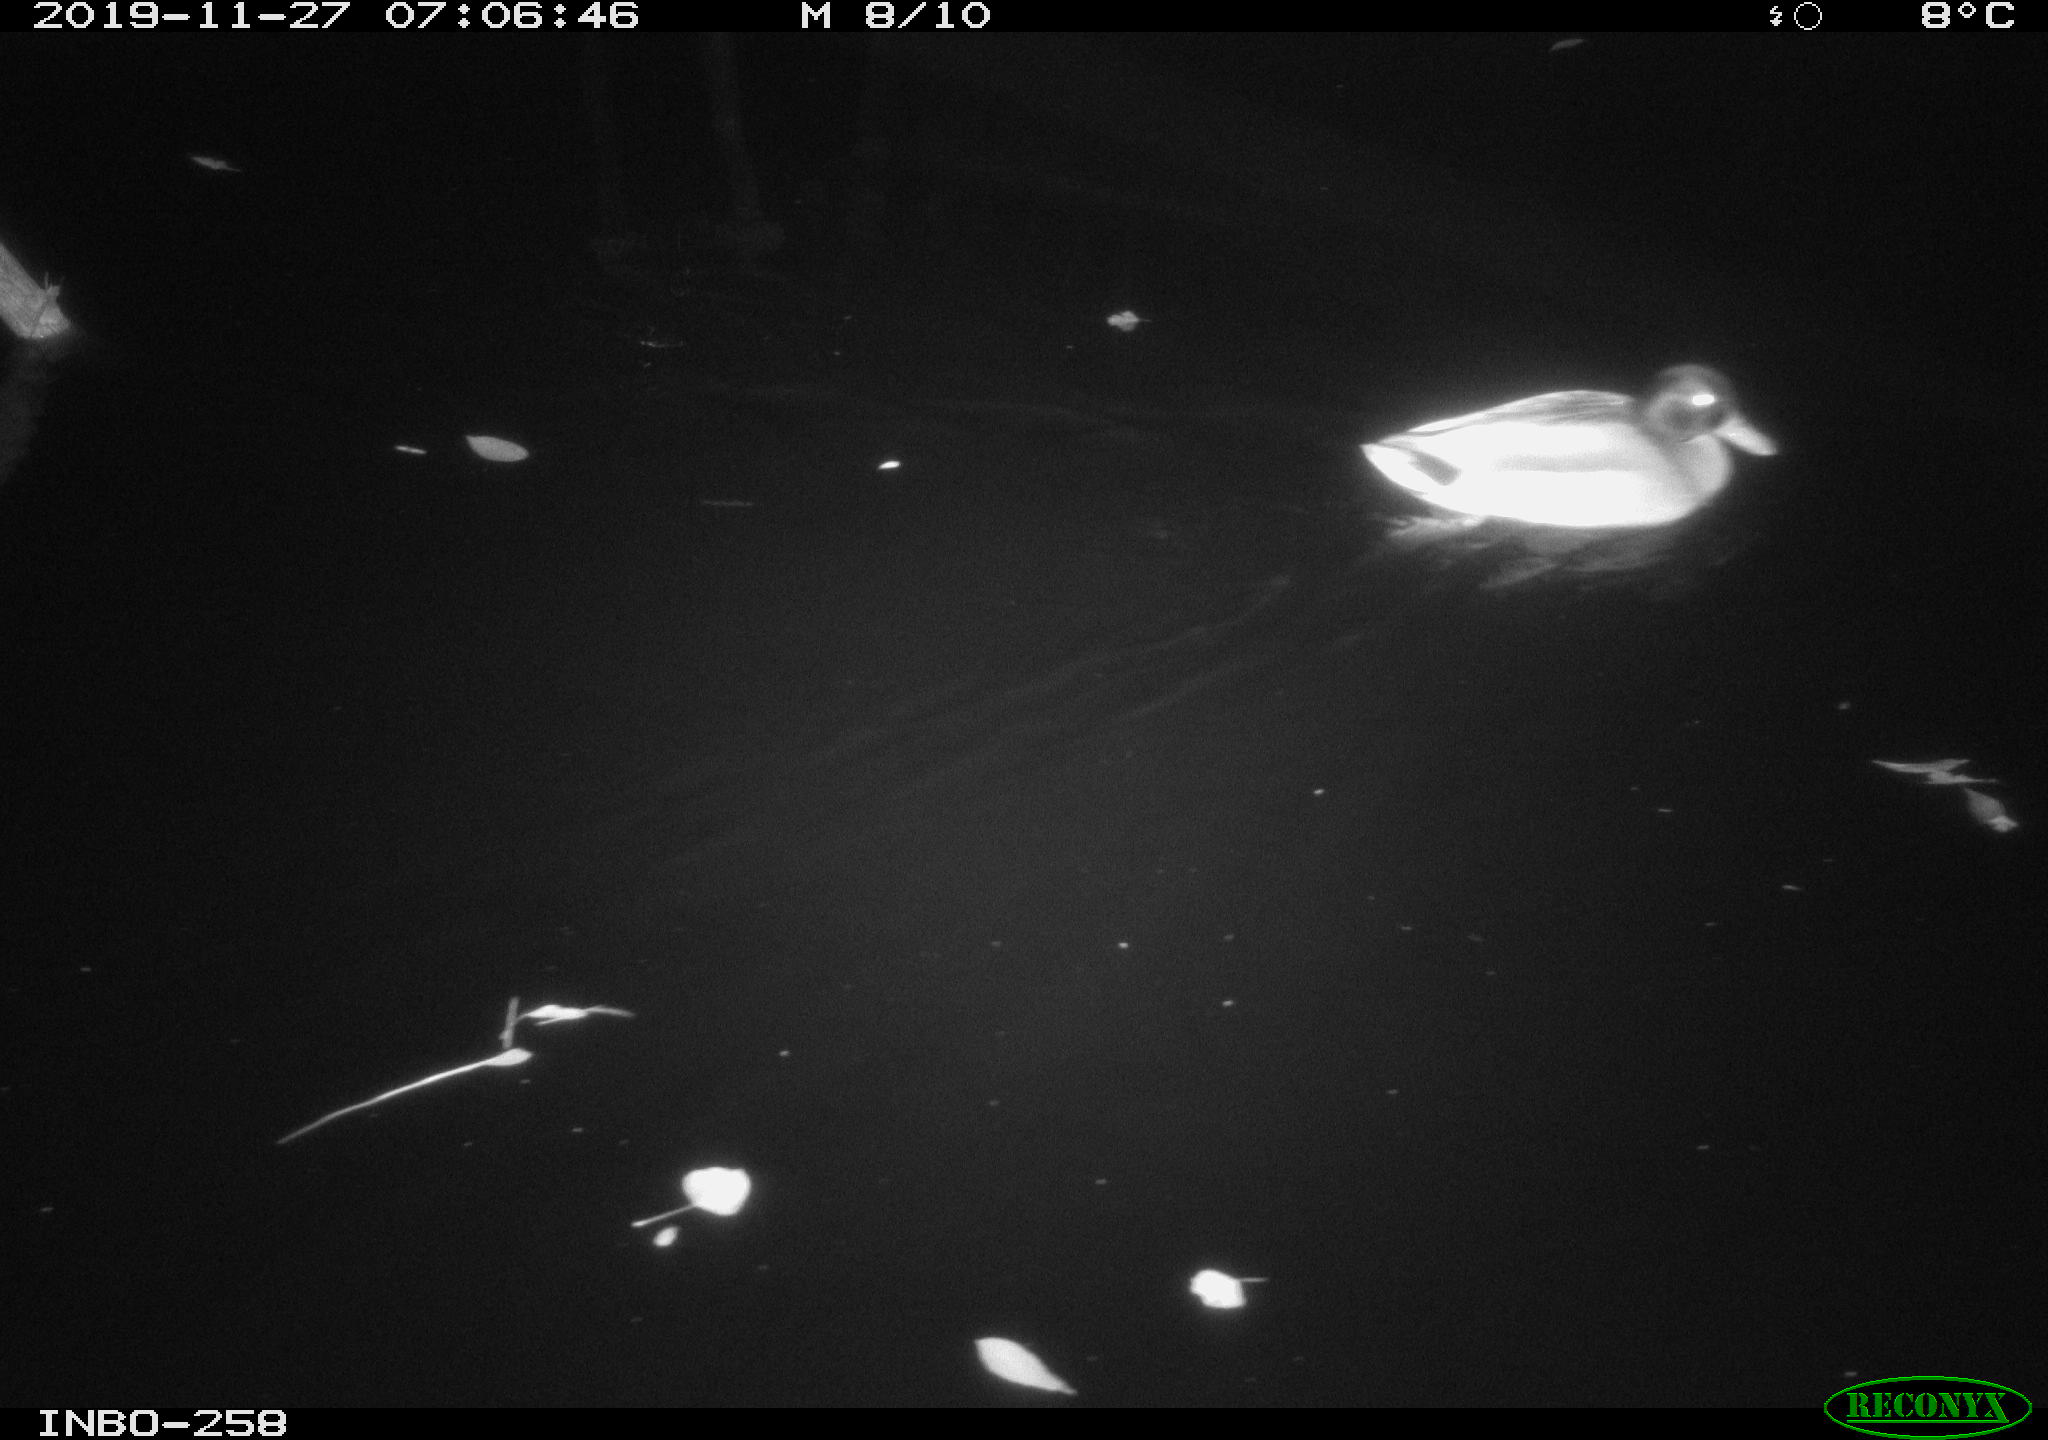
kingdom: Animalia
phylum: Chordata
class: Aves
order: Anseriformes
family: Anatidae
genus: Anas
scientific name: Anas platyrhynchos
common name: Mallard
